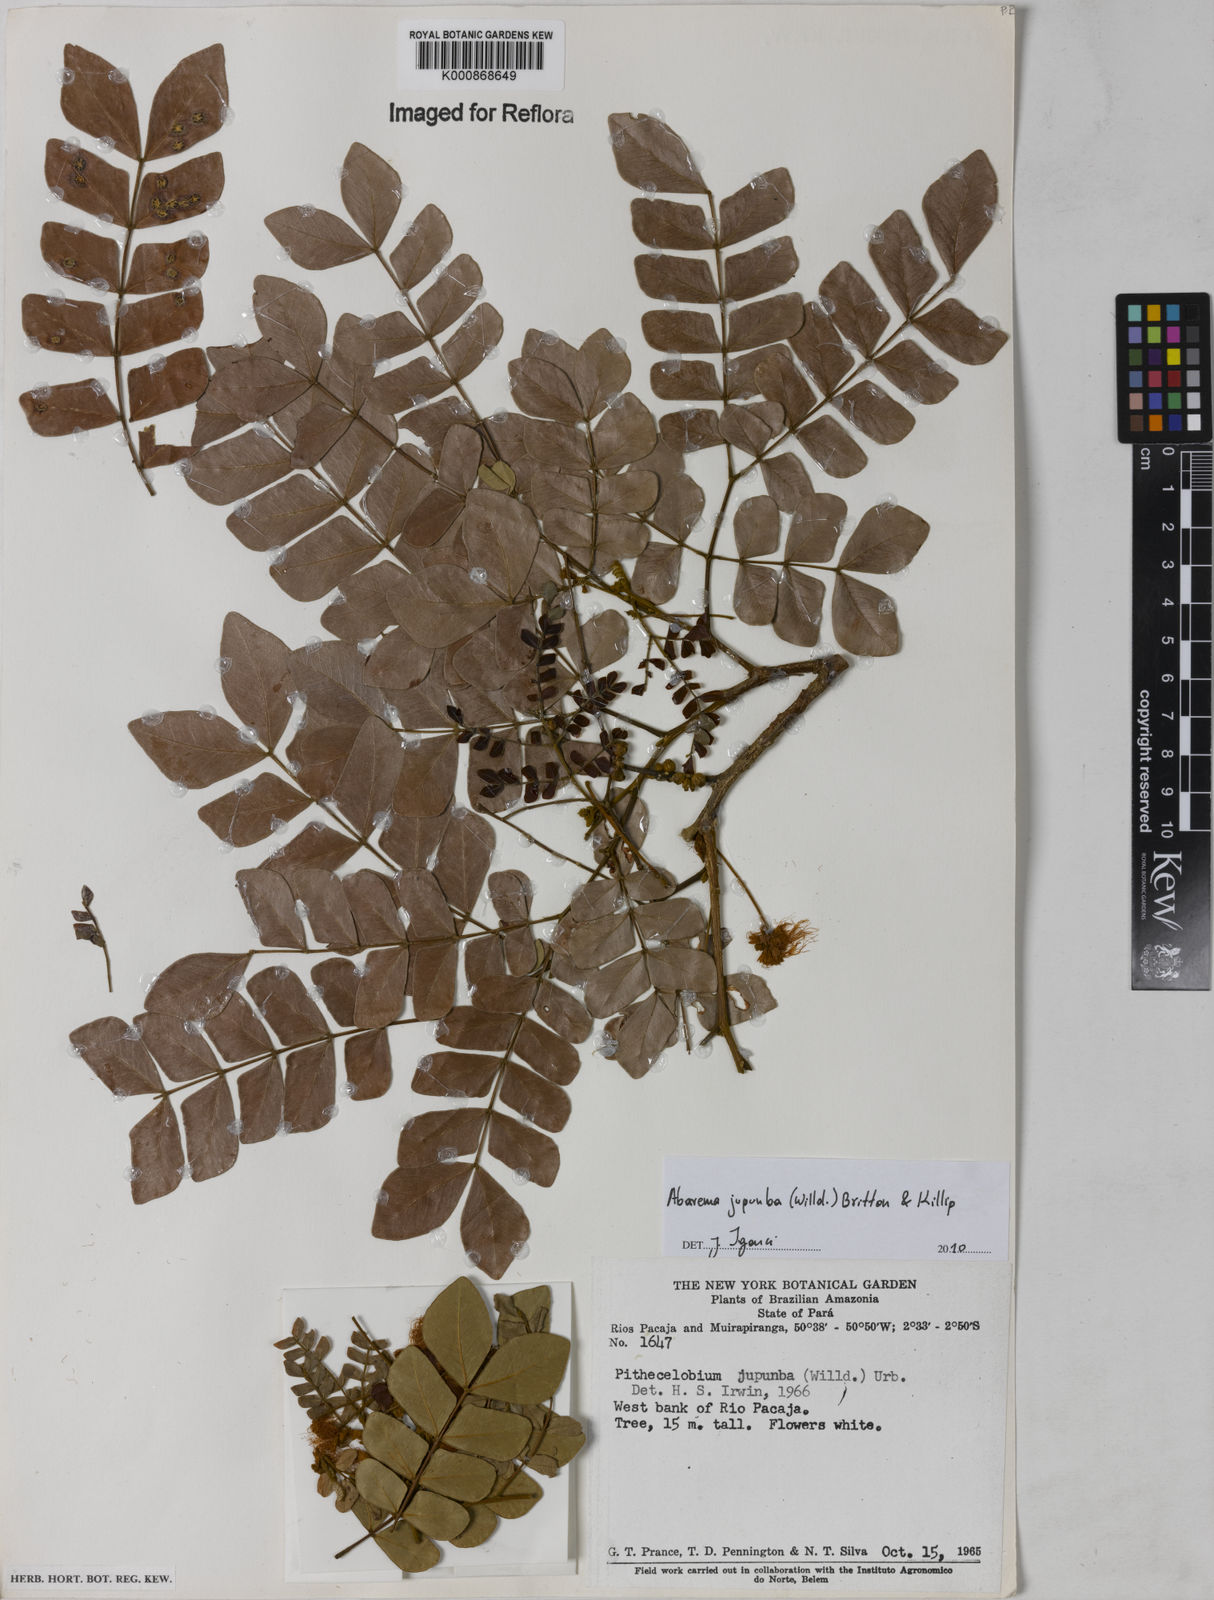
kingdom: Plantae
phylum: Tracheophyta
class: Magnoliopsida
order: Fabales
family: Fabaceae
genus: Jupunba
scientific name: Jupunba trapezifolia
